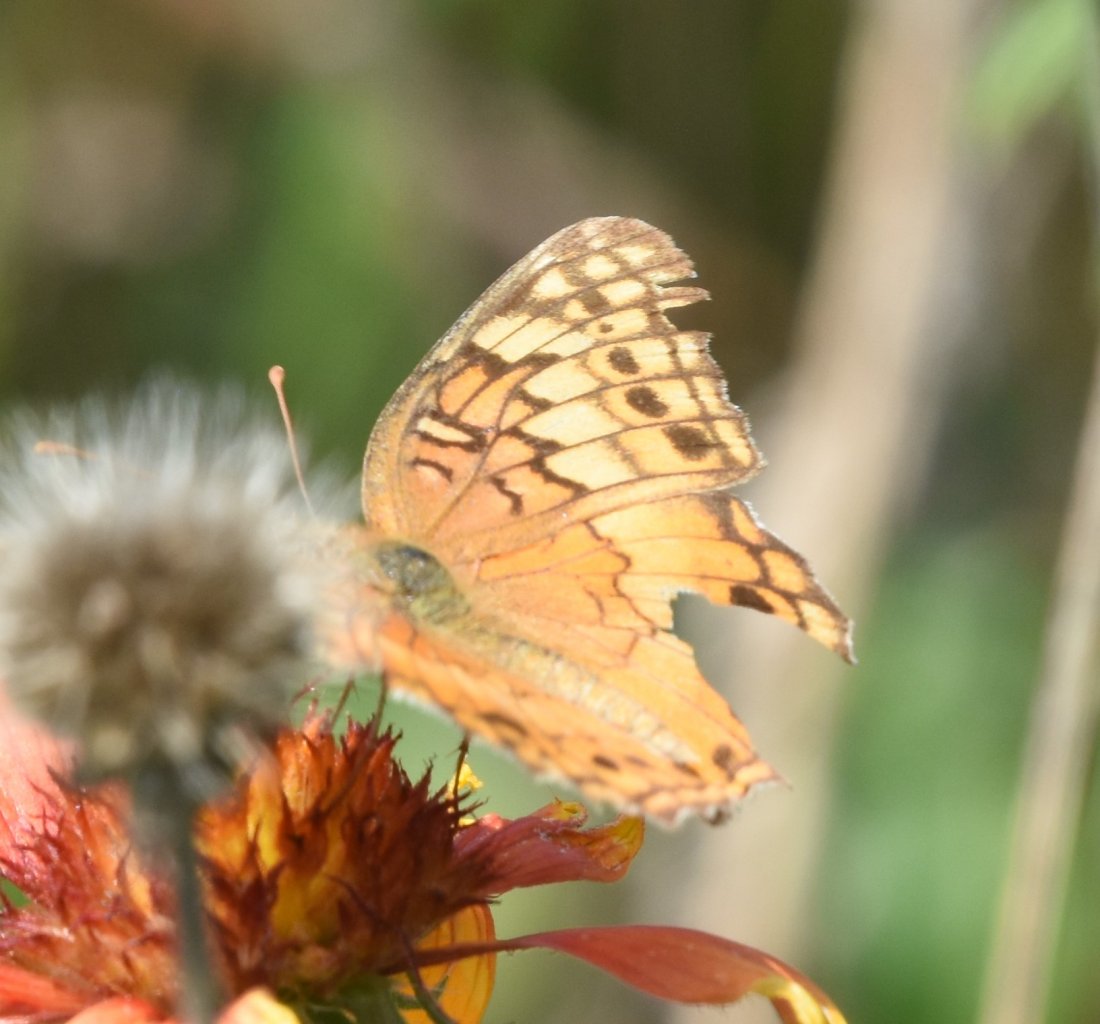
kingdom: Animalia
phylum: Arthropoda
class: Insecta
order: Lepidoptera
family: Nymphalidae
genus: Phyciodes
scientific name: Phyciodes tharos
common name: Pearl Crescent
